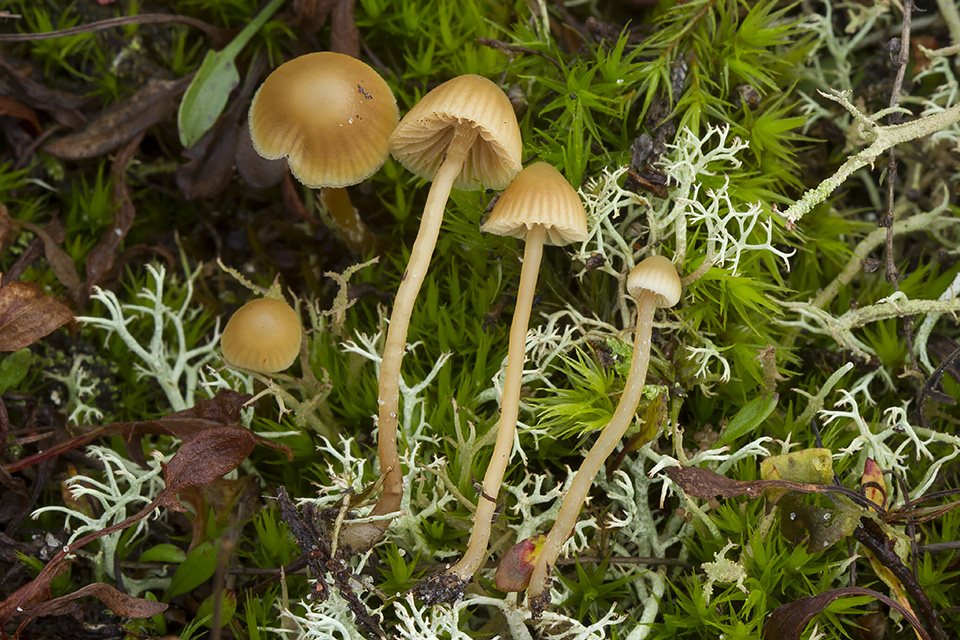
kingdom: Fungi
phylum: Basidiomycota
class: Agaricomycetes
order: Agaricales
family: Hymenogastraceae
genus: Galerina
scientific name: Galerina mniophila
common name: olivengul hjelmhat
